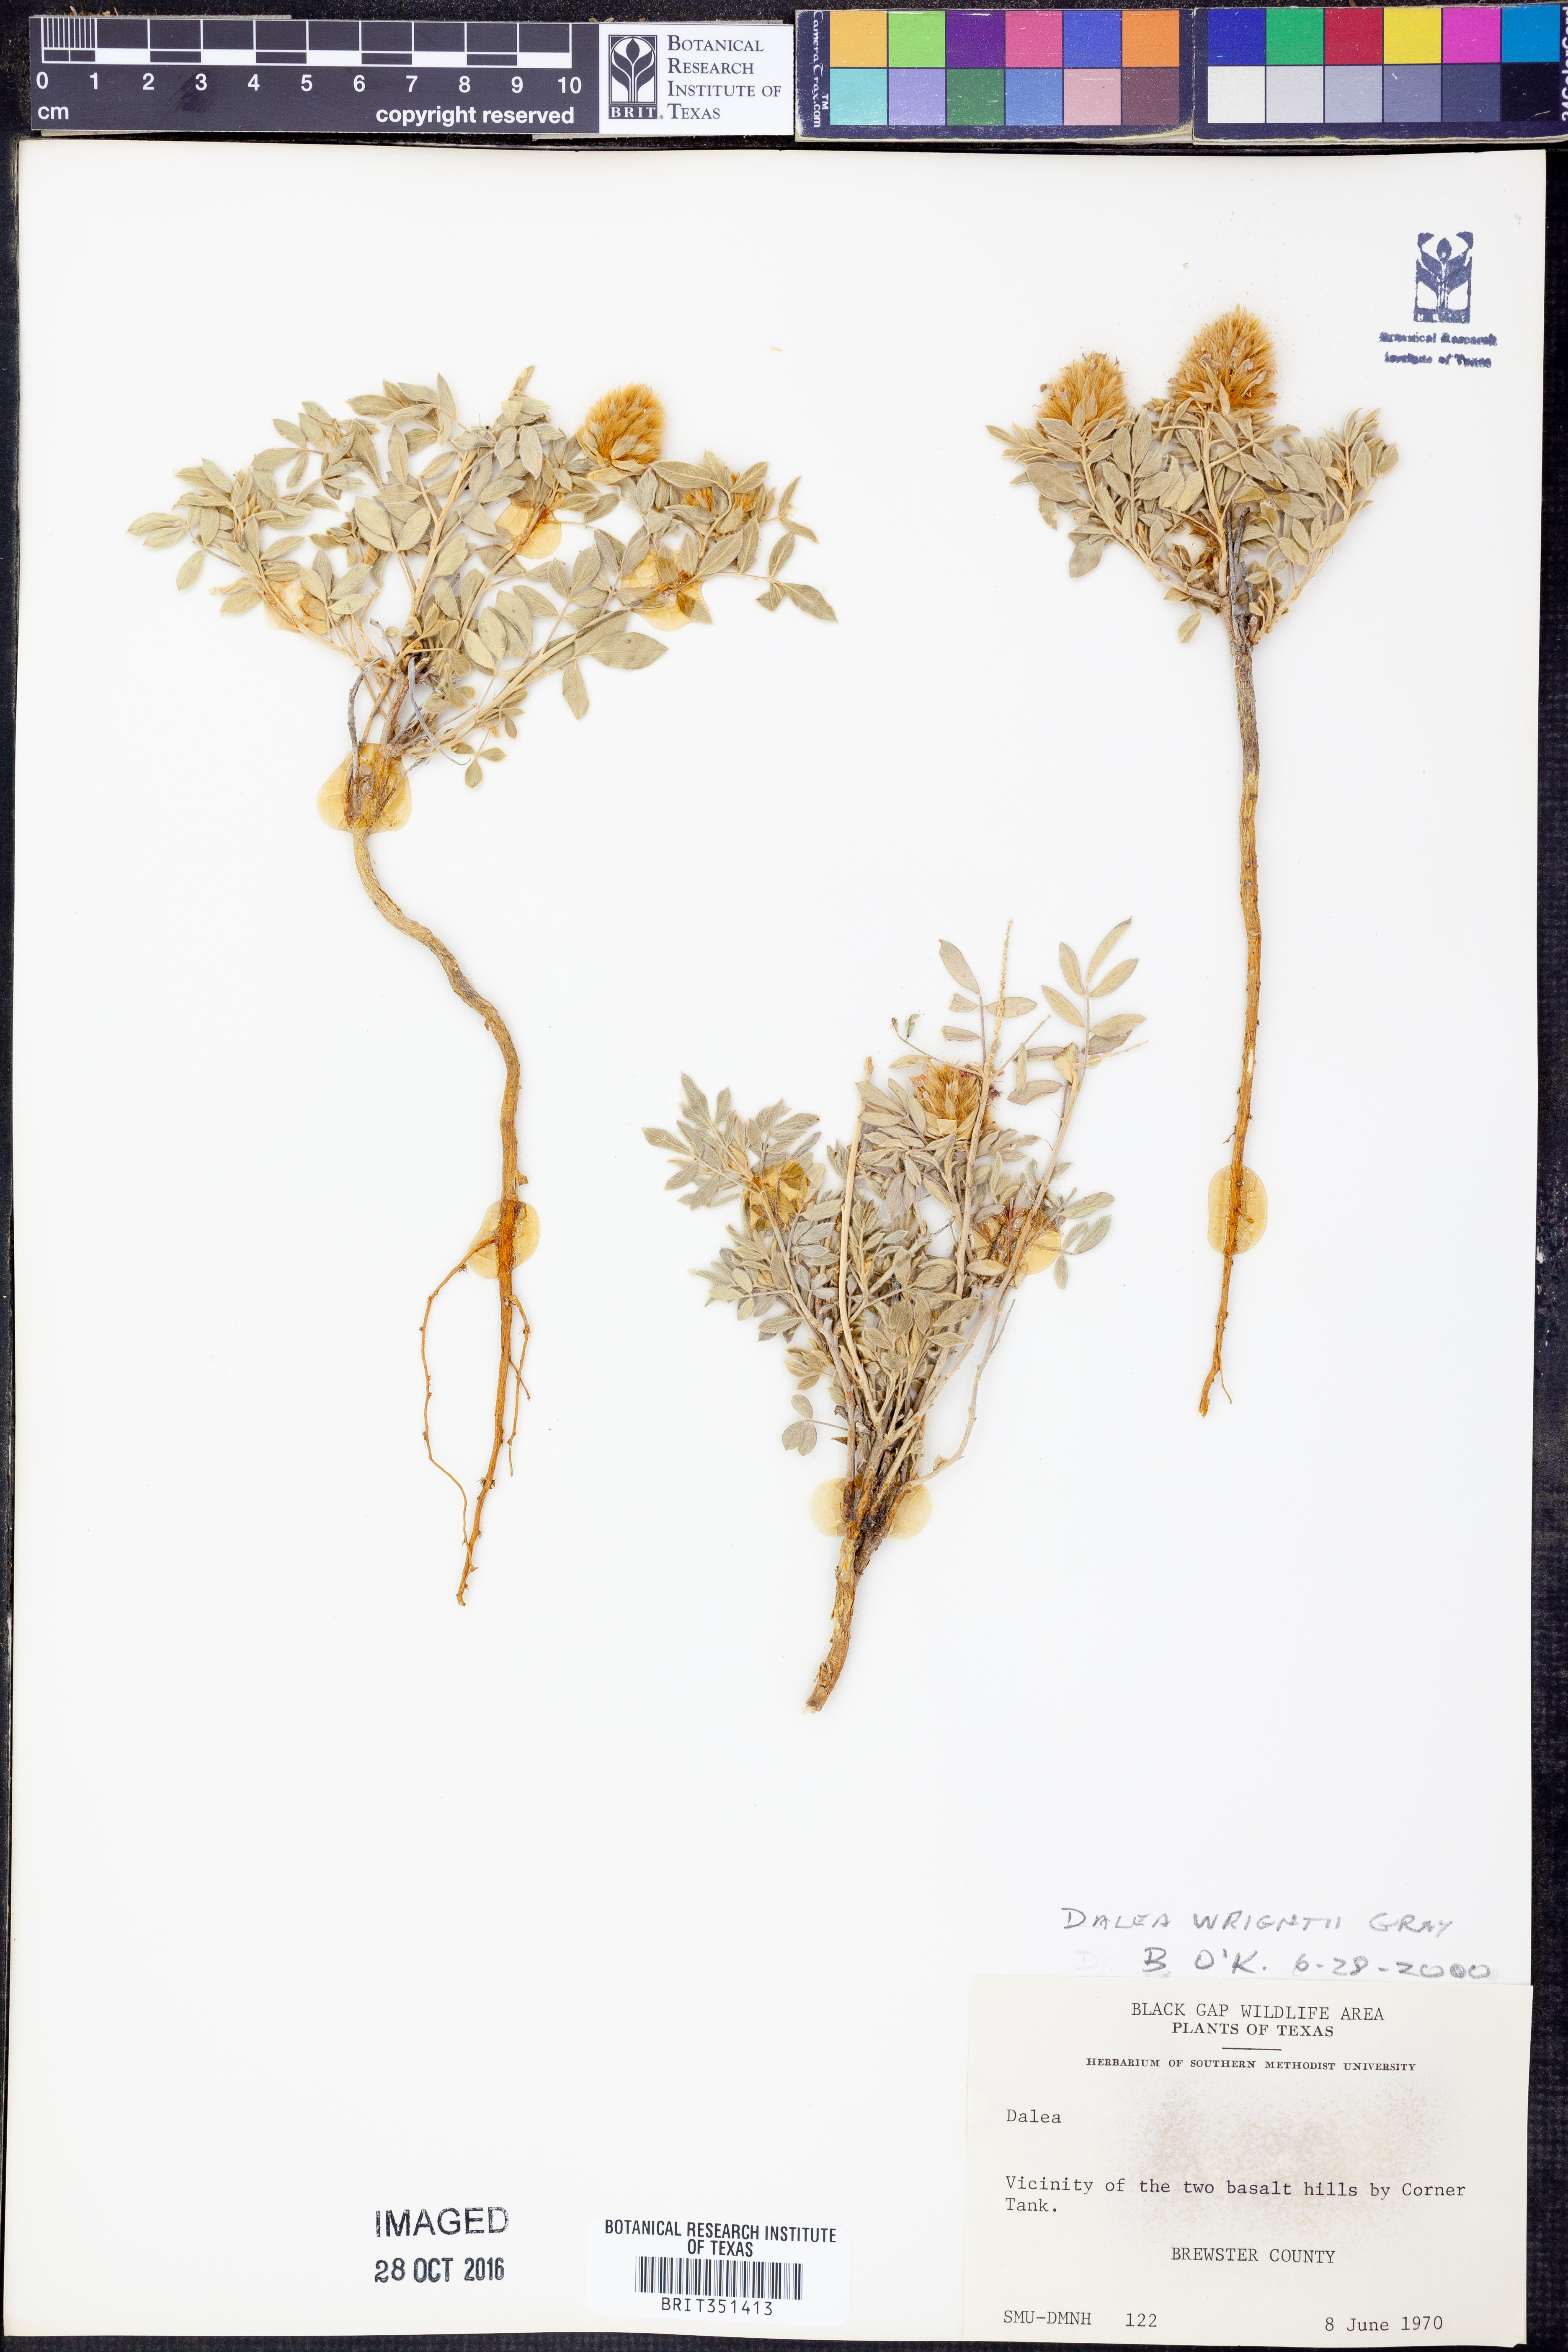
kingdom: Plantae
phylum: Tracheophyta
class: Magnoliopsida
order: Fabales
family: Fabaceae
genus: Dalea
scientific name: Dalea wrightii
